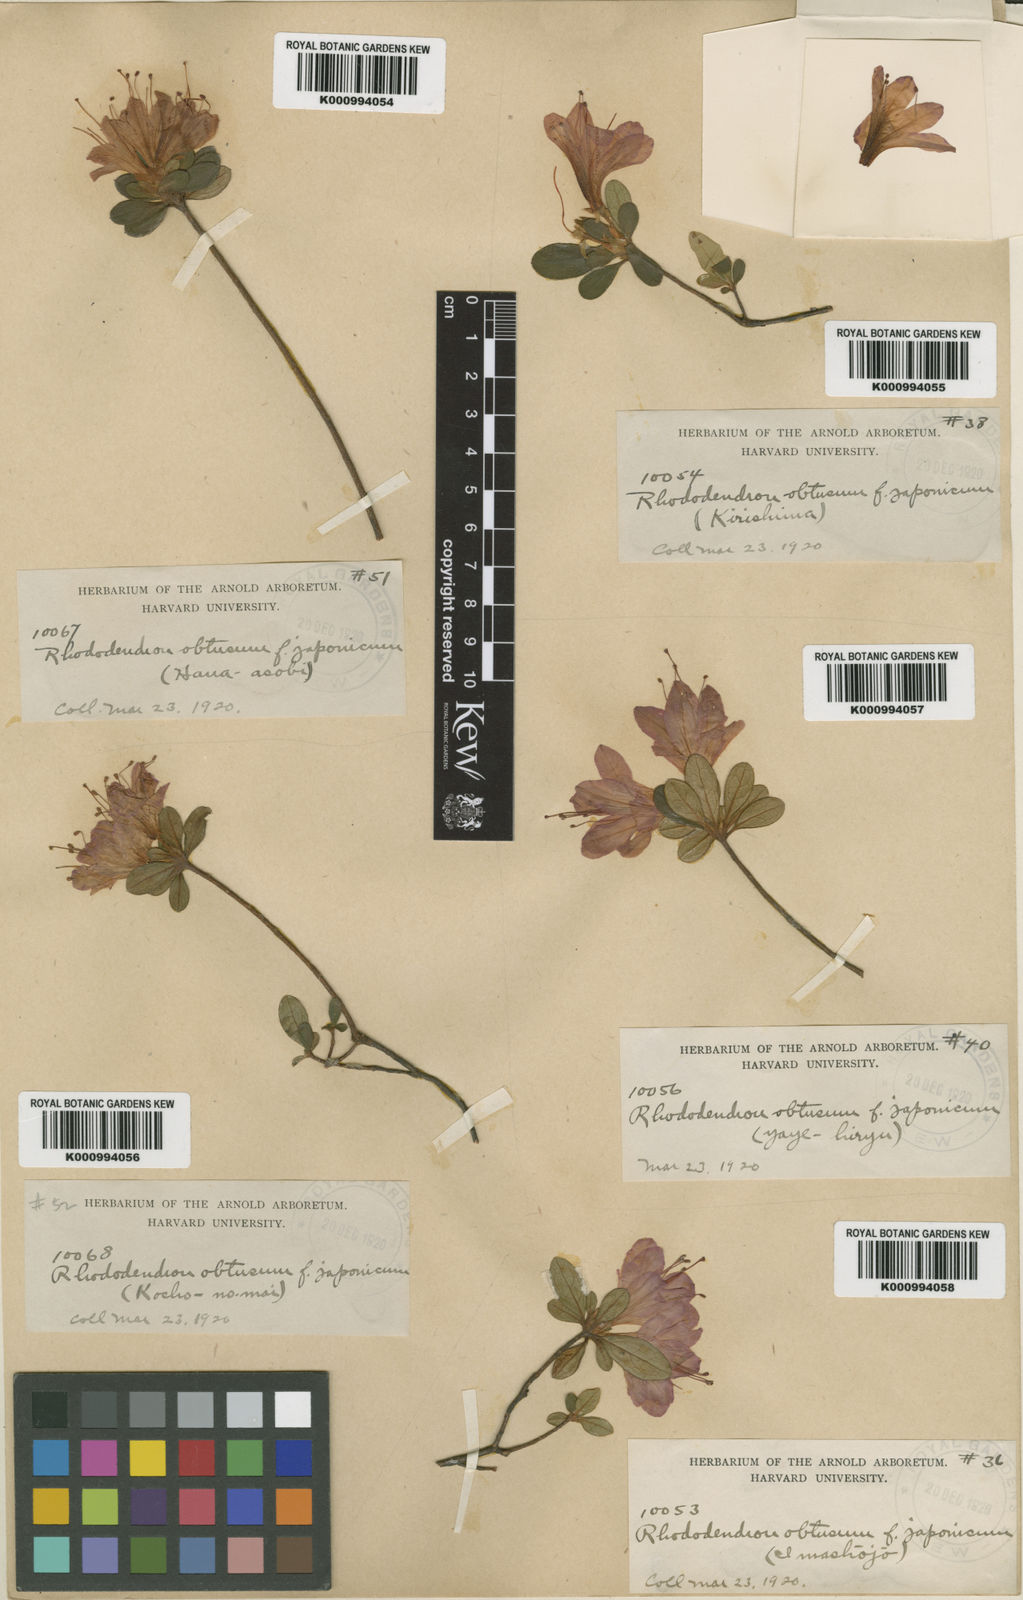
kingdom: Plantae
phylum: Tracheophyta
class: Magnoliopsida
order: Ericales
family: Ericaceae
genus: Rhododendron
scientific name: Rhododendron kiusianum
